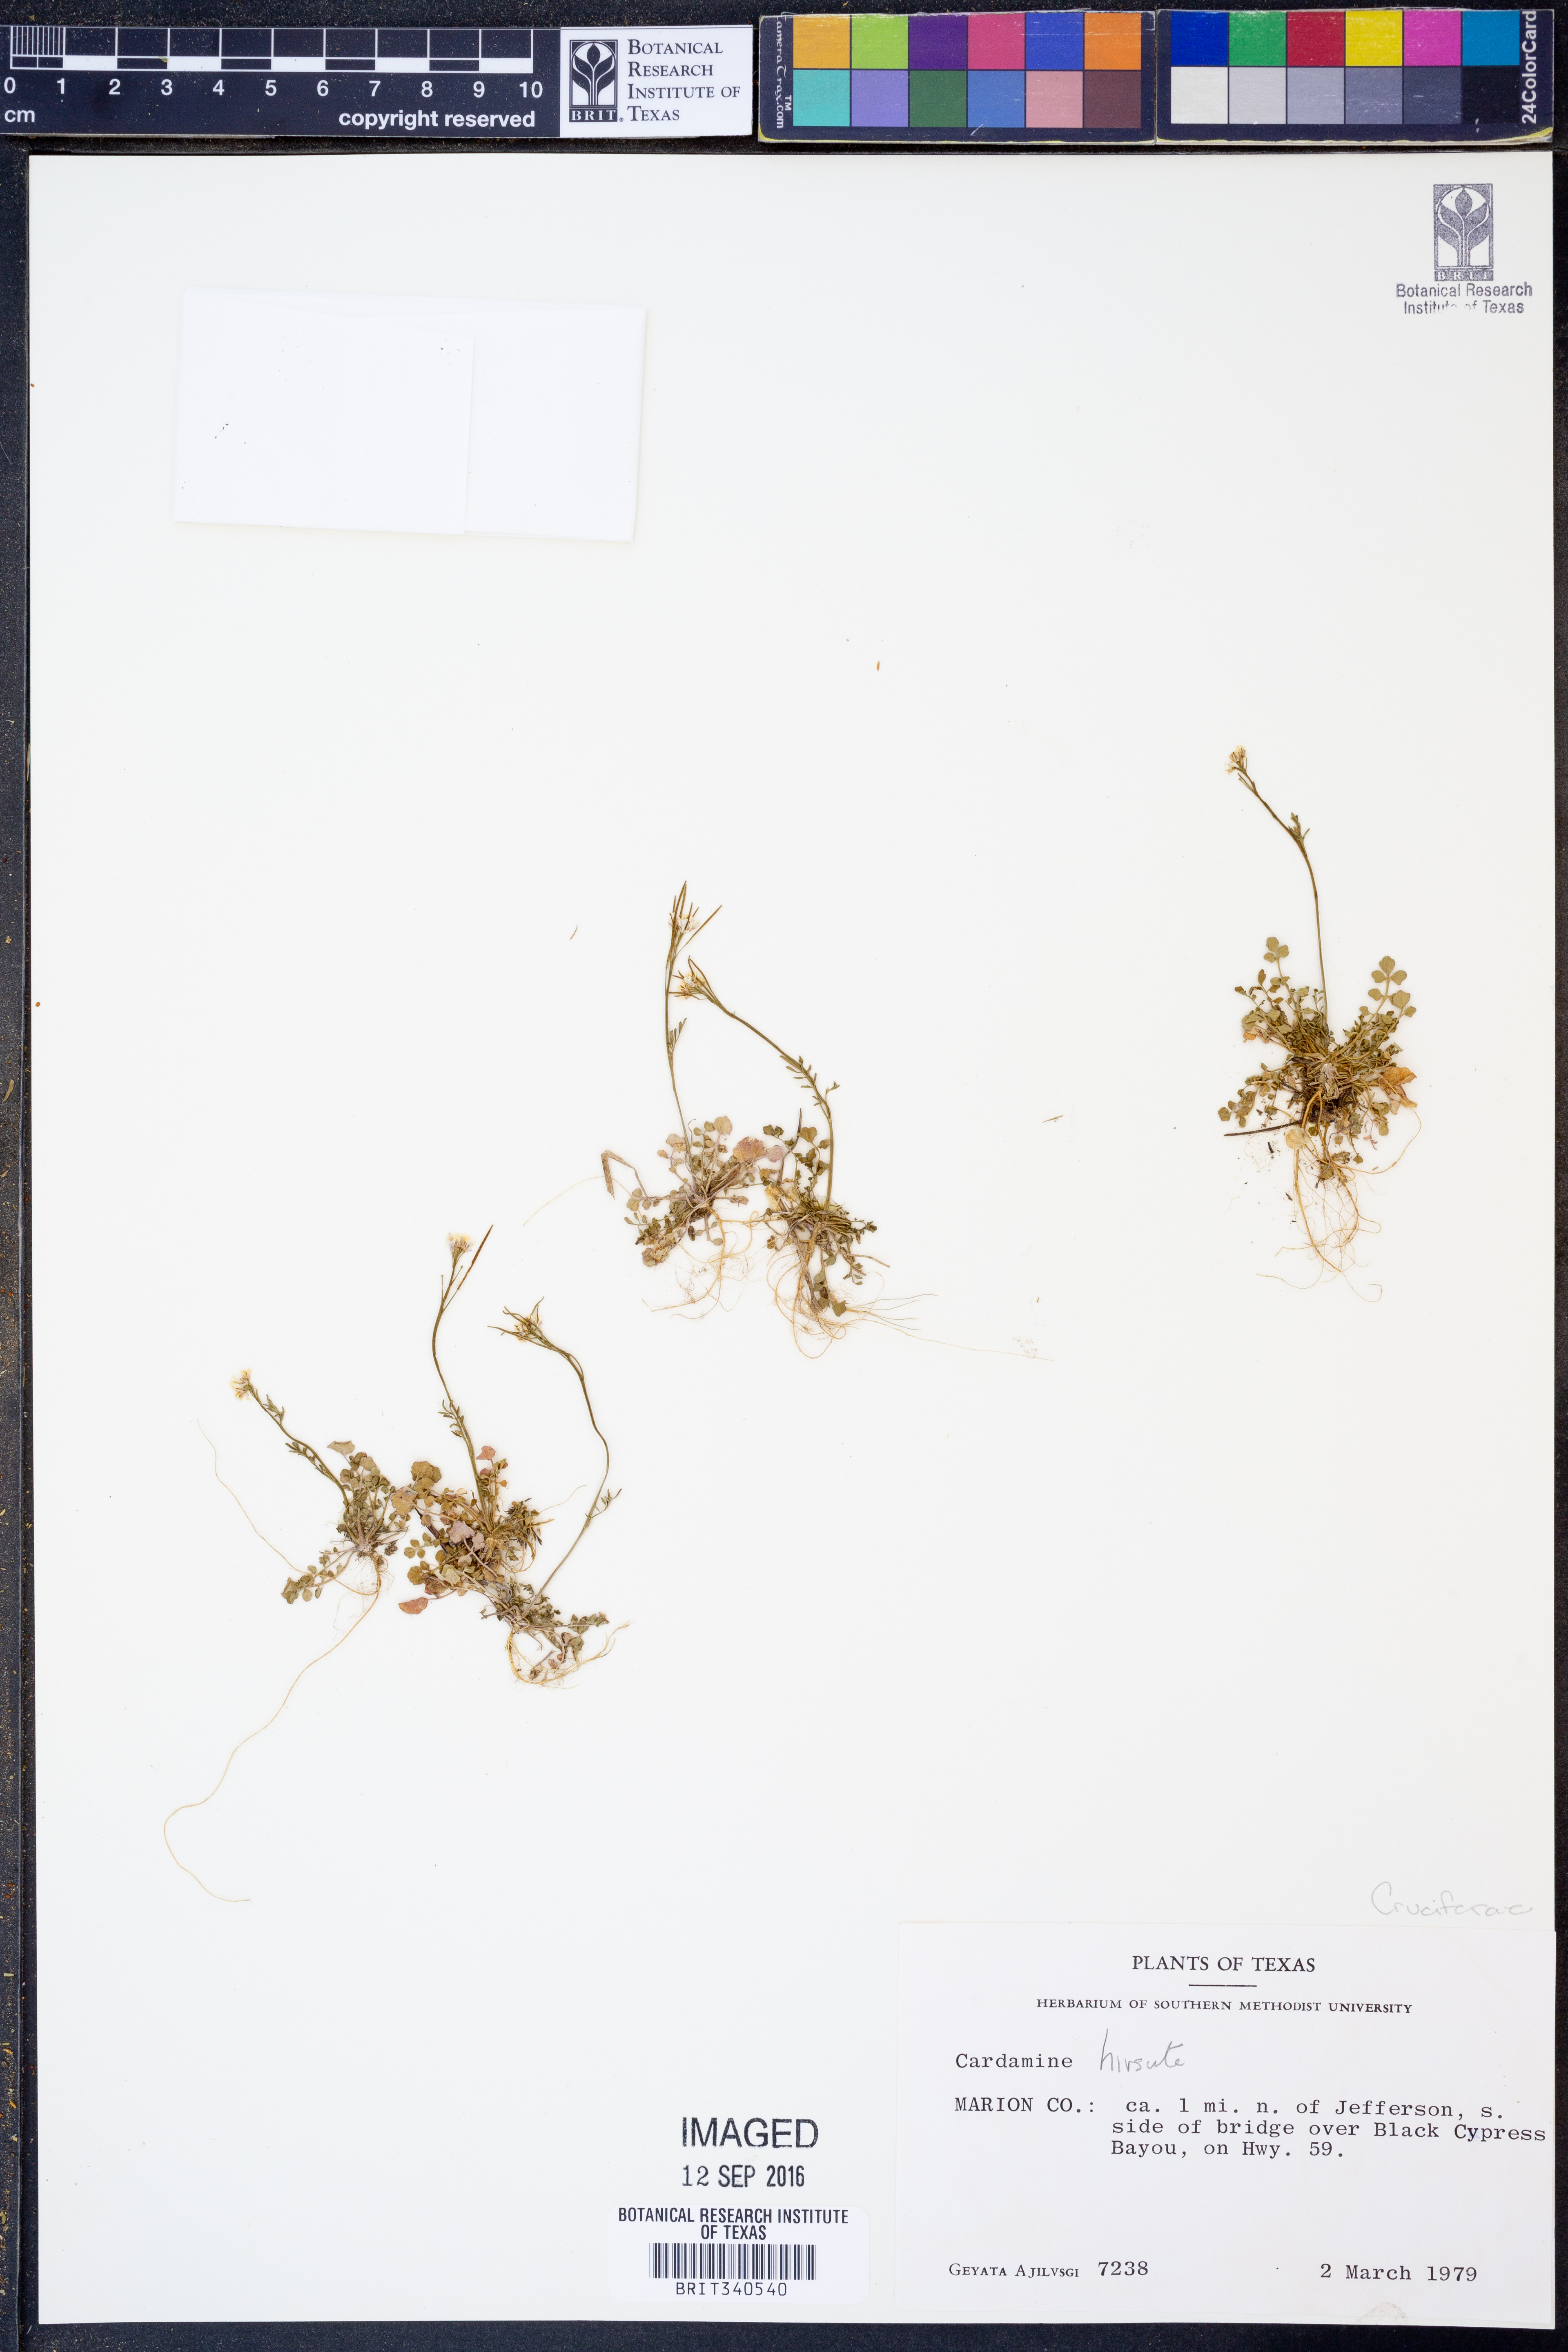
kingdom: Plantae
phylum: Tracheophyta
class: Magnoliopsida
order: Brassicales
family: Brassicaceae
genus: Cardamine
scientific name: Cardamine hirsuta
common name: Hairy bittercress
